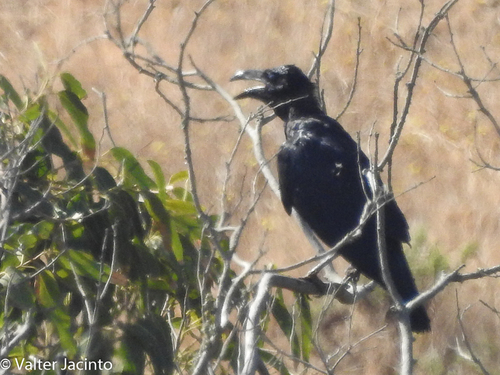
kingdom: Animalia
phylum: Chordata
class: Aves
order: Passeriformes
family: Corvidae
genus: Corvus
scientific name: Corvus corax
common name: Common raven
